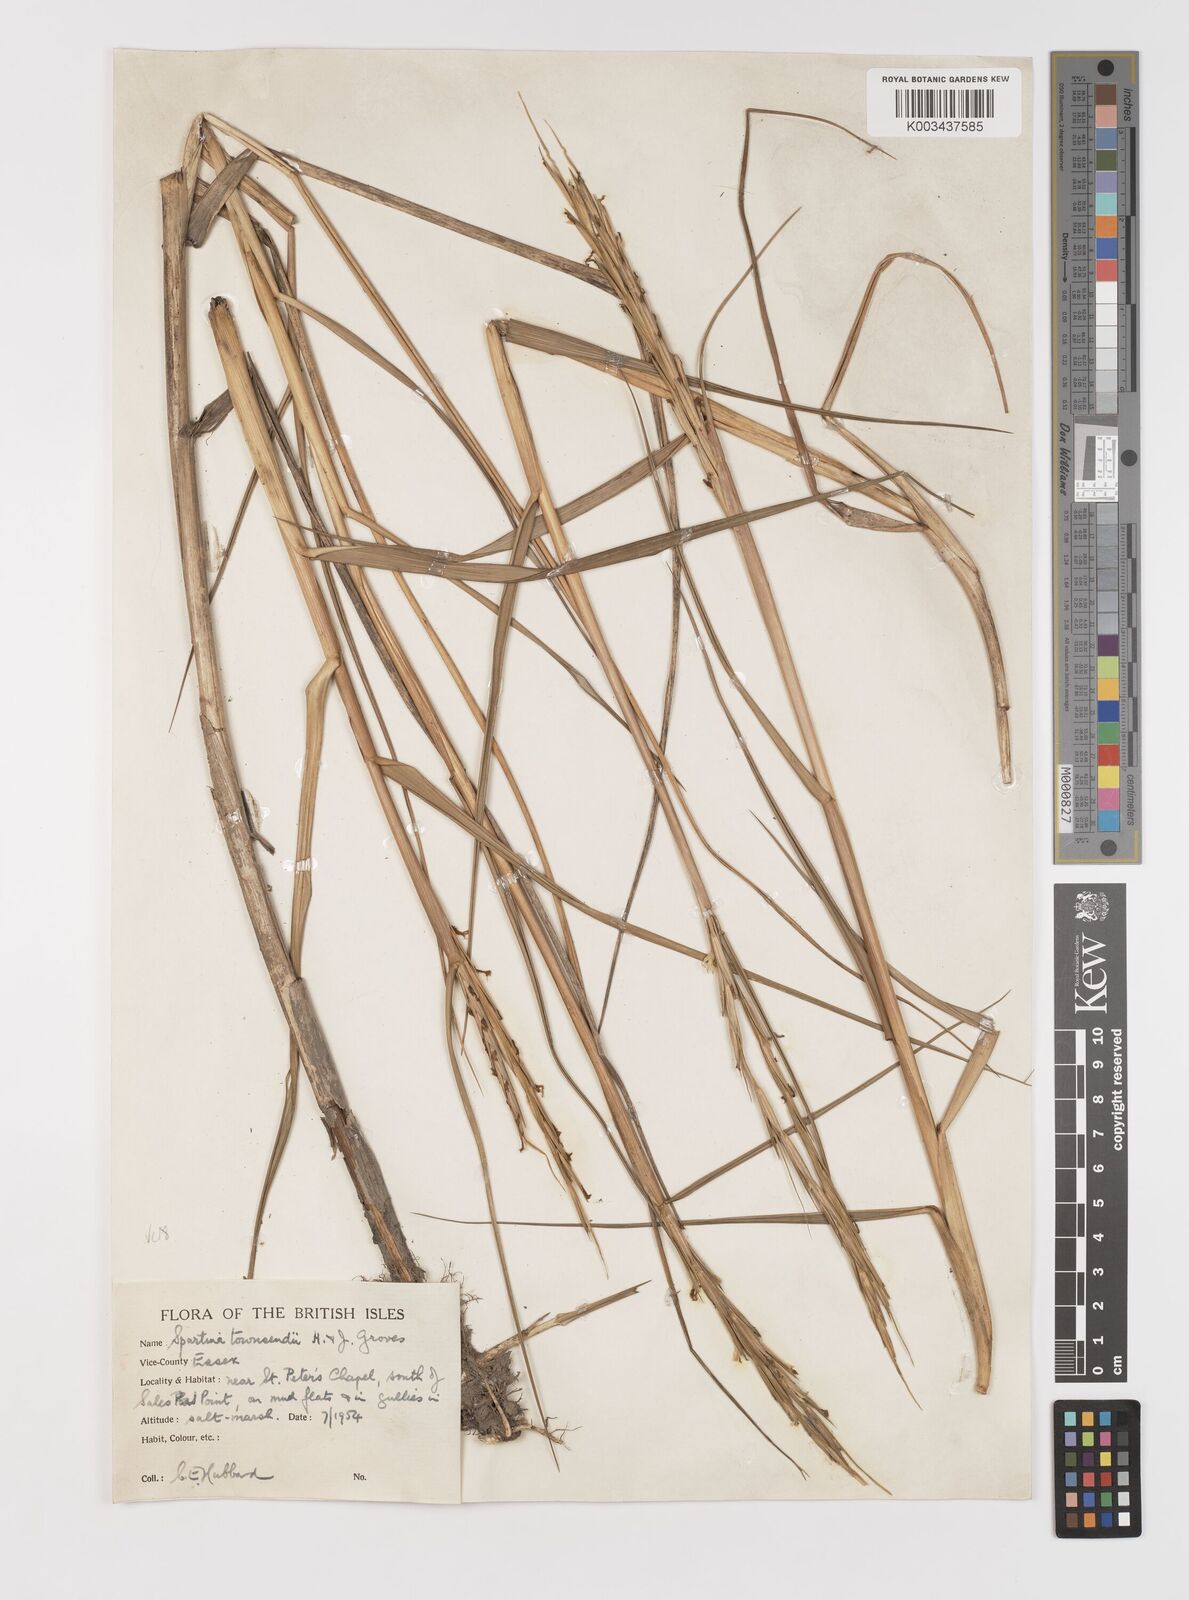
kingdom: Plantae
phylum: Tracheophyta
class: Liliopsida
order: Poales
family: Poaceae
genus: Sporobolus
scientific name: Sporobolus anglicus
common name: English cordgrass
